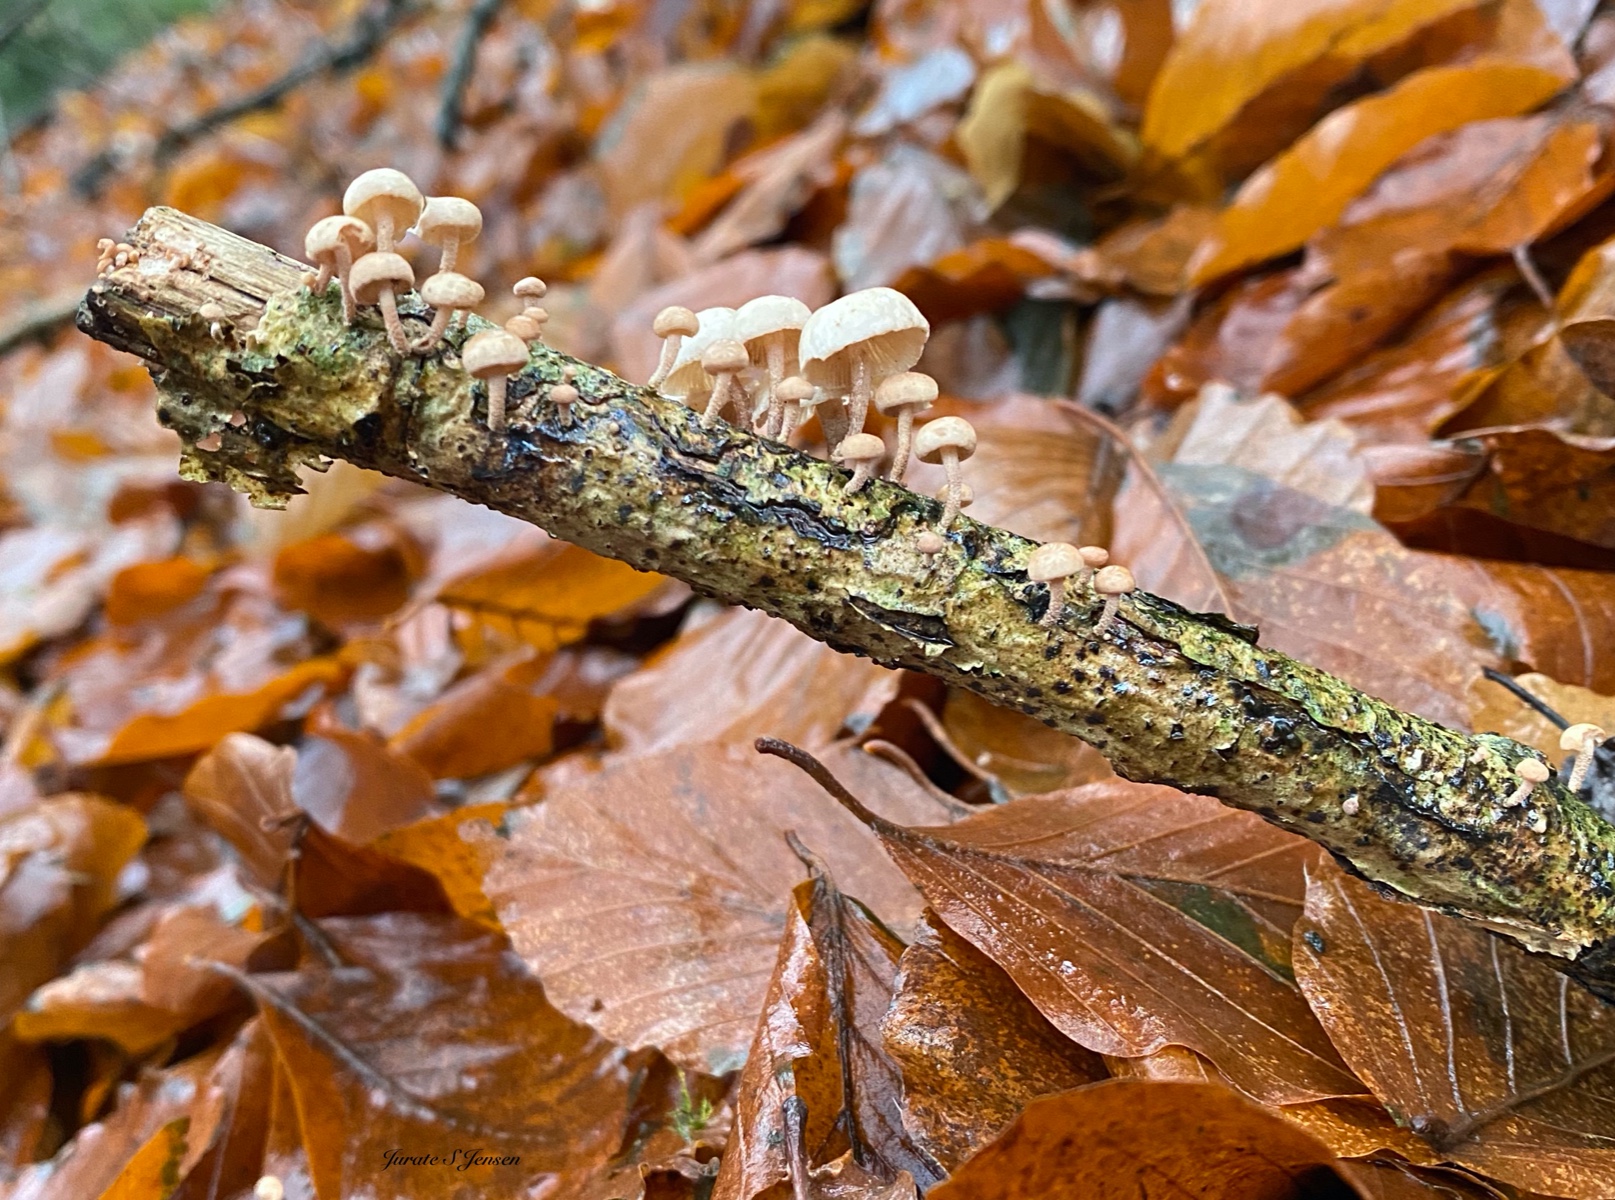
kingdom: Fungi
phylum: Basidiomycota
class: Agaricomycetes
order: Agaricales
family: Omphalotaceae
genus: Collybiopsis
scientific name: Collybiopsis ramealis
